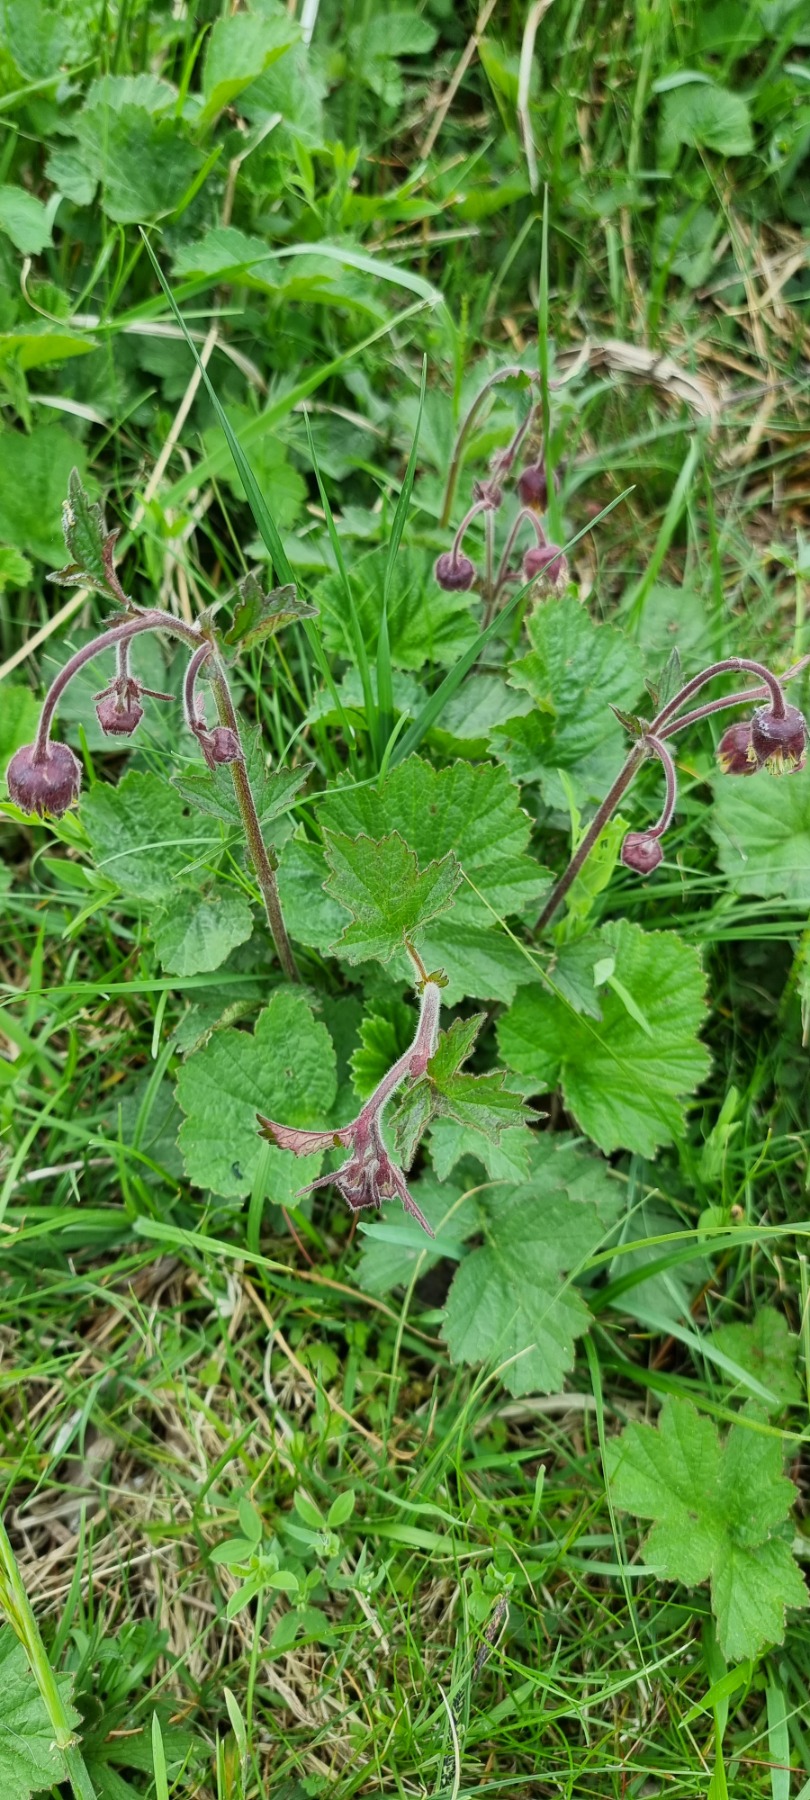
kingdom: Plantae
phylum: Tracheophyta
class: Magnoliopsida
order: Rosales
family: Rosaceae
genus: Geum
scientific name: Geum rivale
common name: Eng-nellikerod
